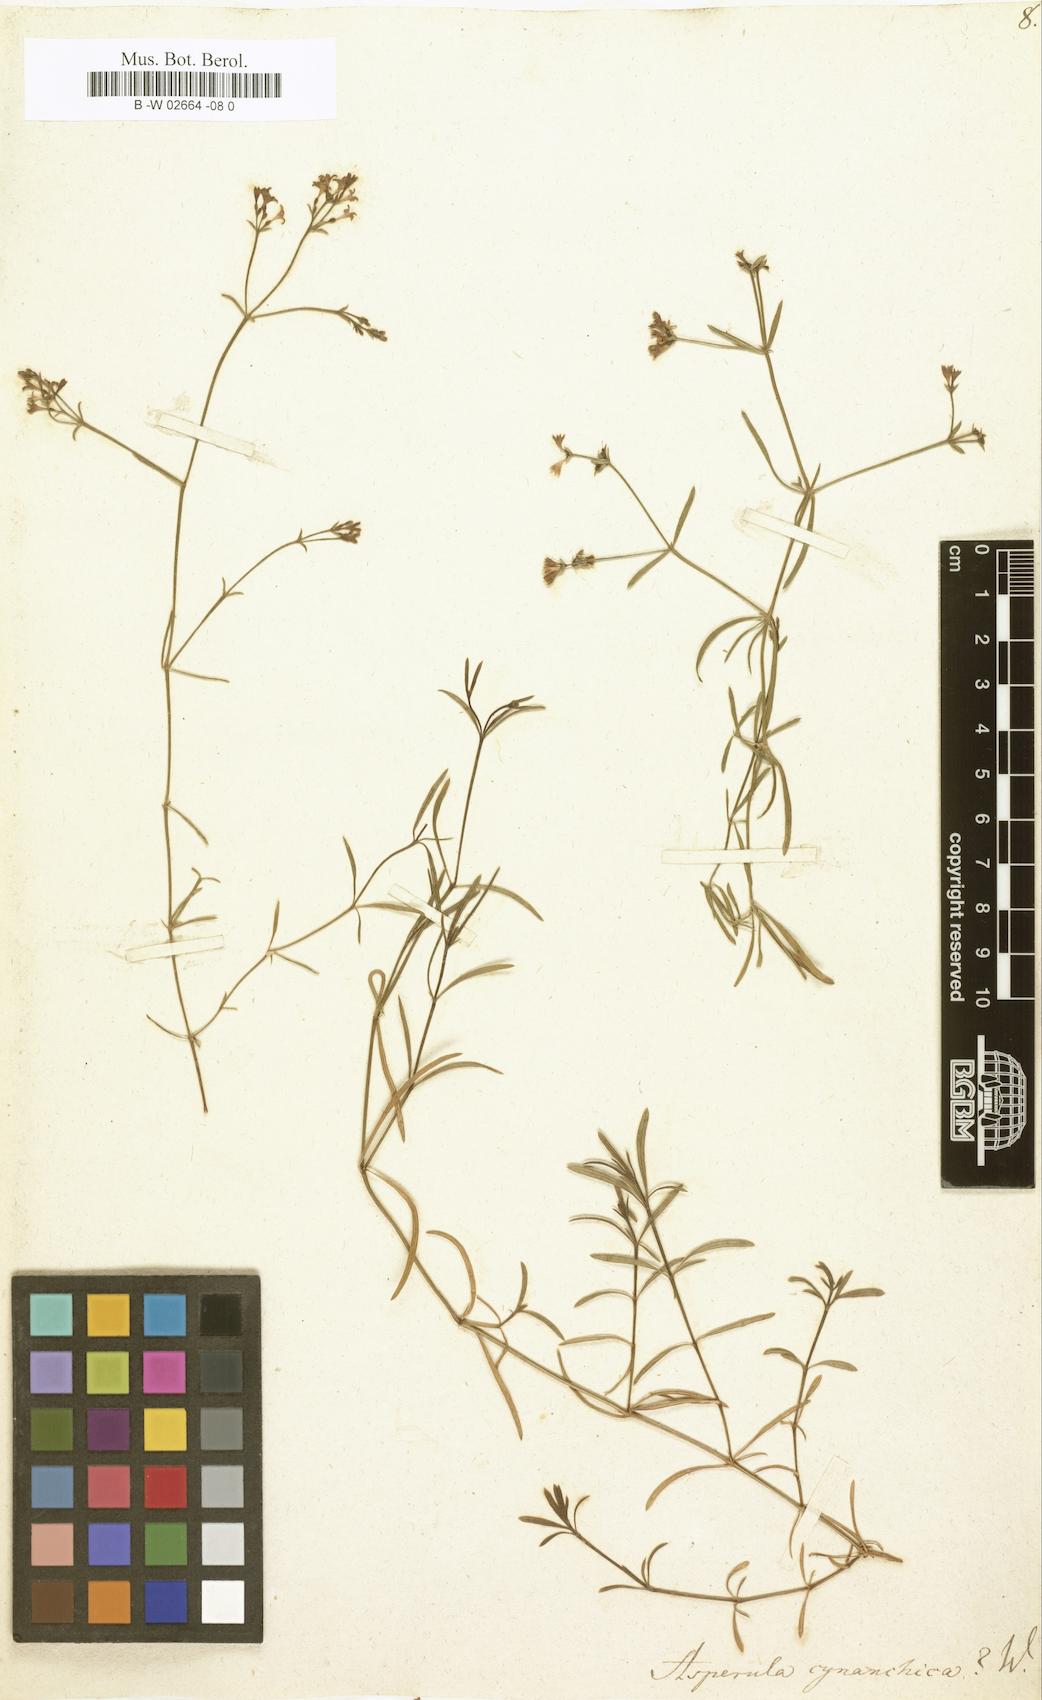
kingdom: Plantae
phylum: Tracheophyta
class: Magnoliopsida
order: Gentianales
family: Rubiaceae
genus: Cynanchica
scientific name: Cynanchica pyrenaica
